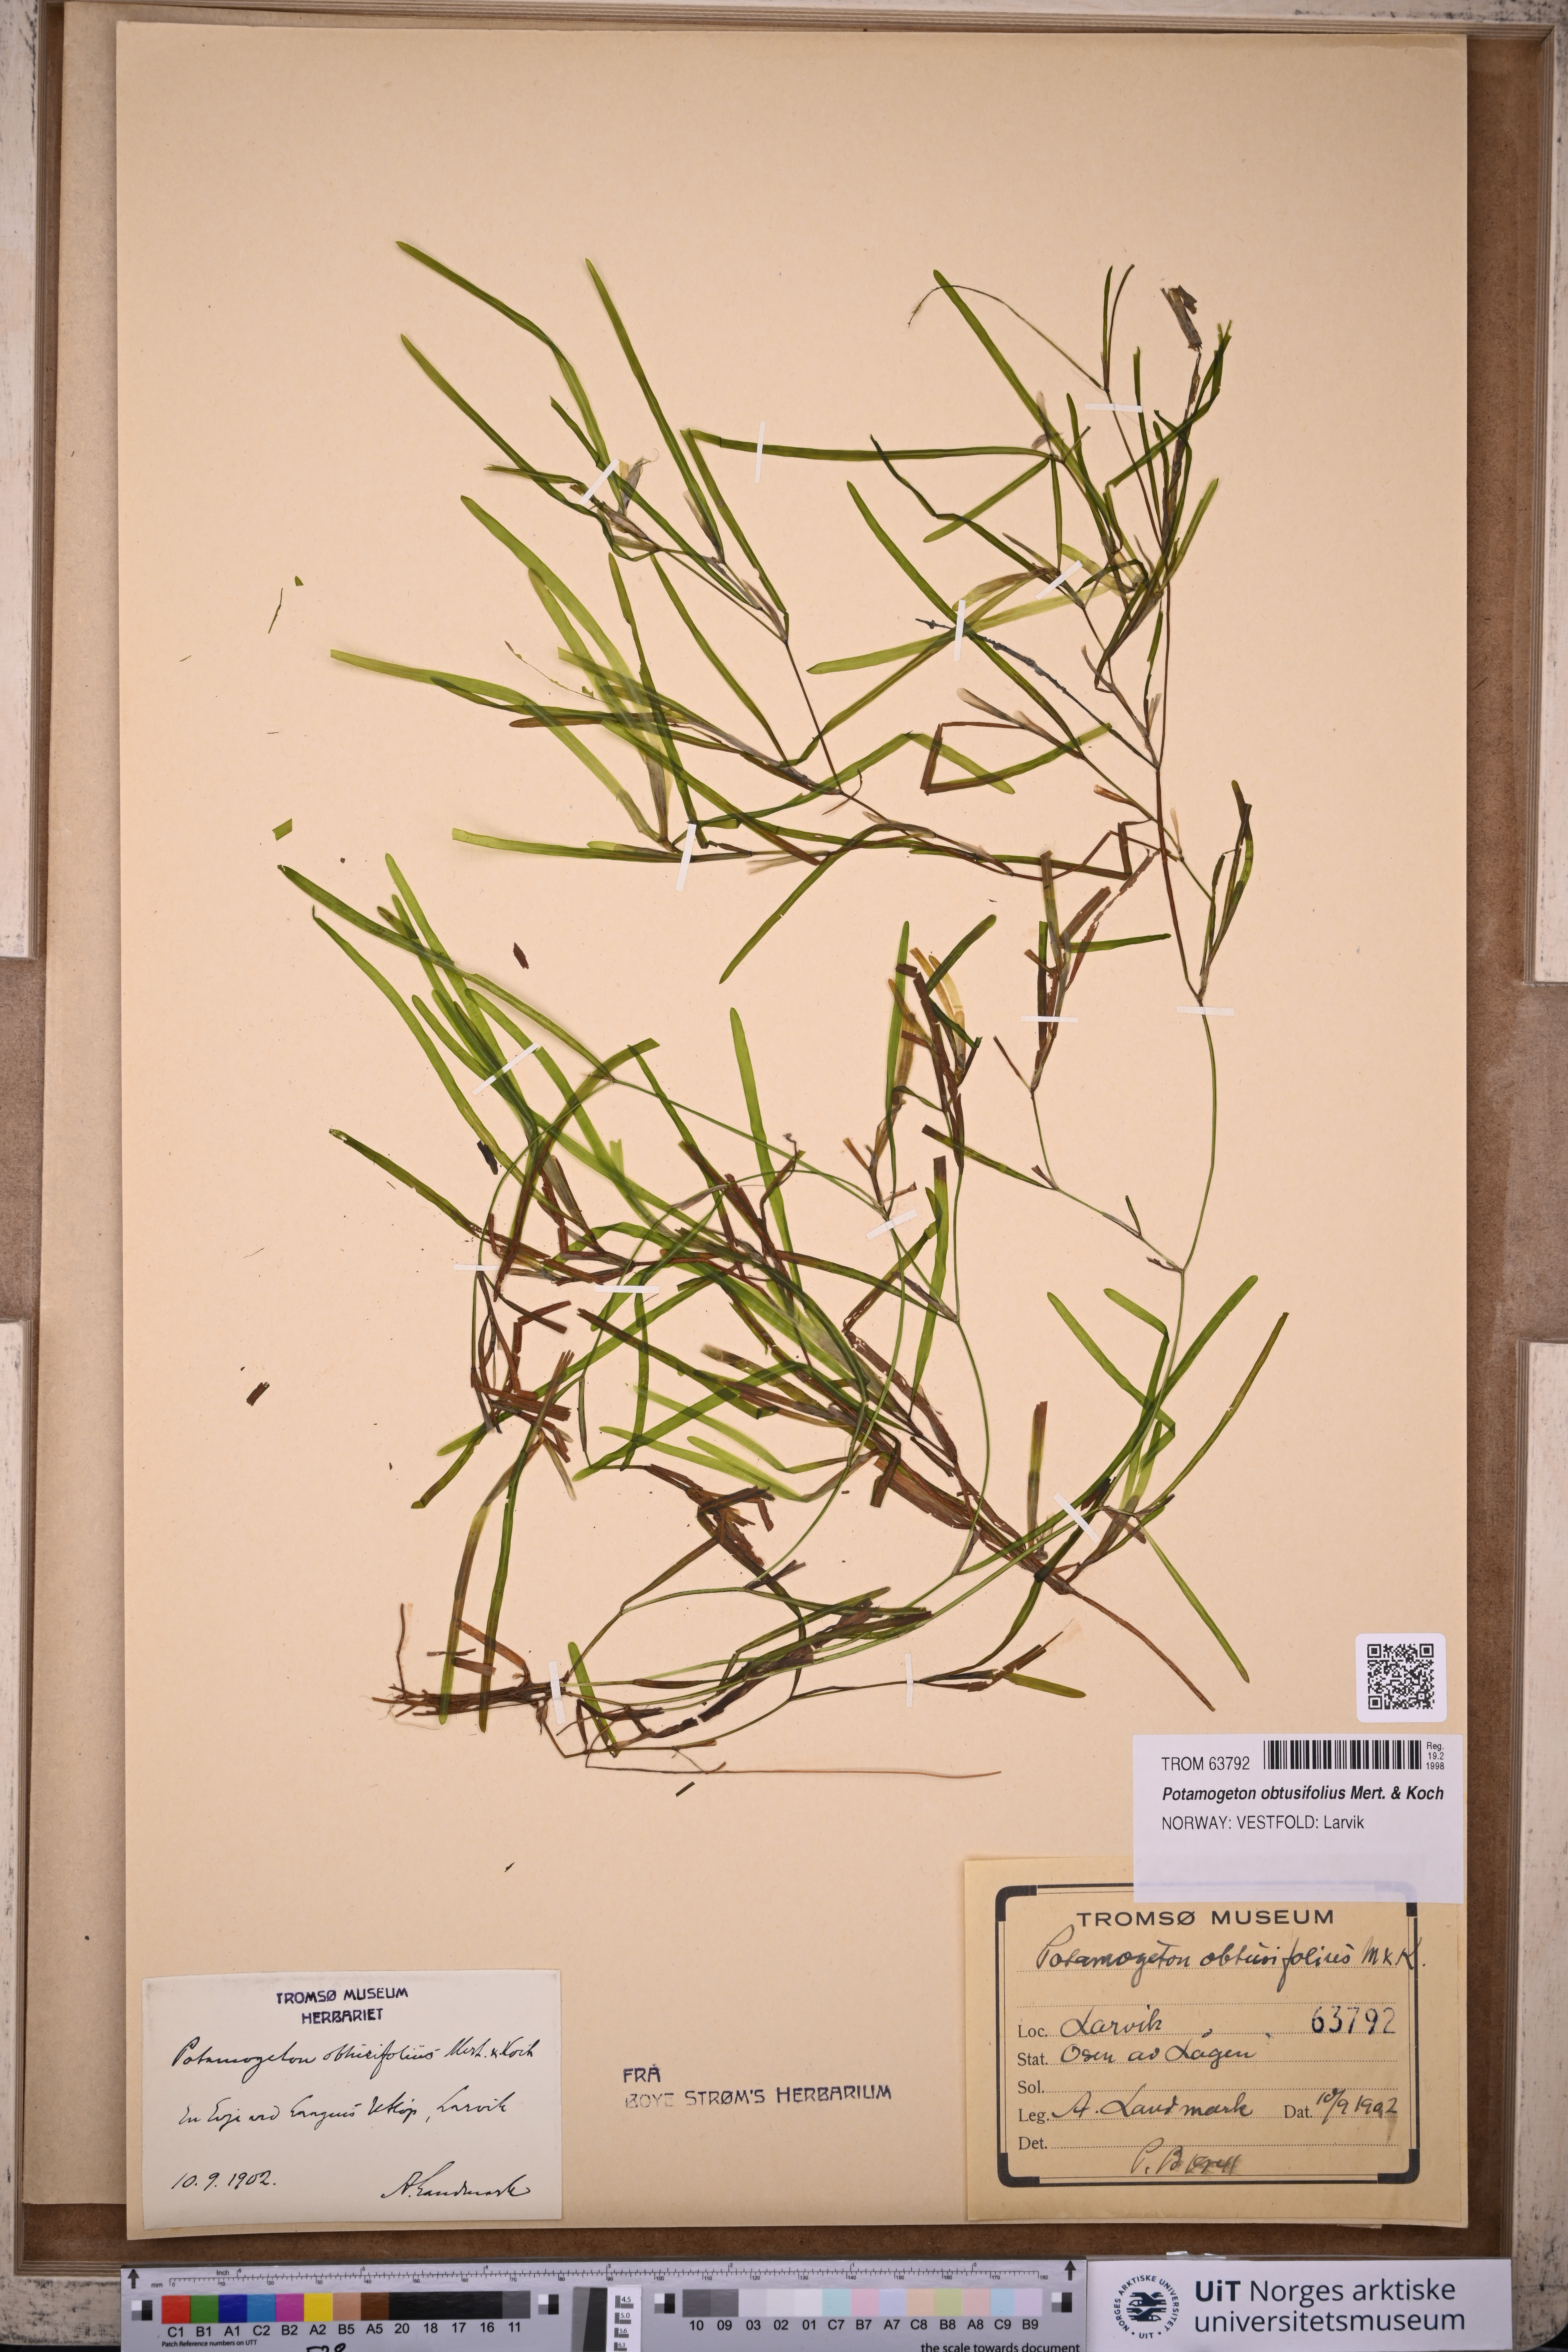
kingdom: Plantae
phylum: Tracheophyta
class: Liliopsida
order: Alismatales
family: Potamogetonaceae
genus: Potamogeton
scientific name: Potamogeton obtusifolius
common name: Blunt-leaved pondweed
